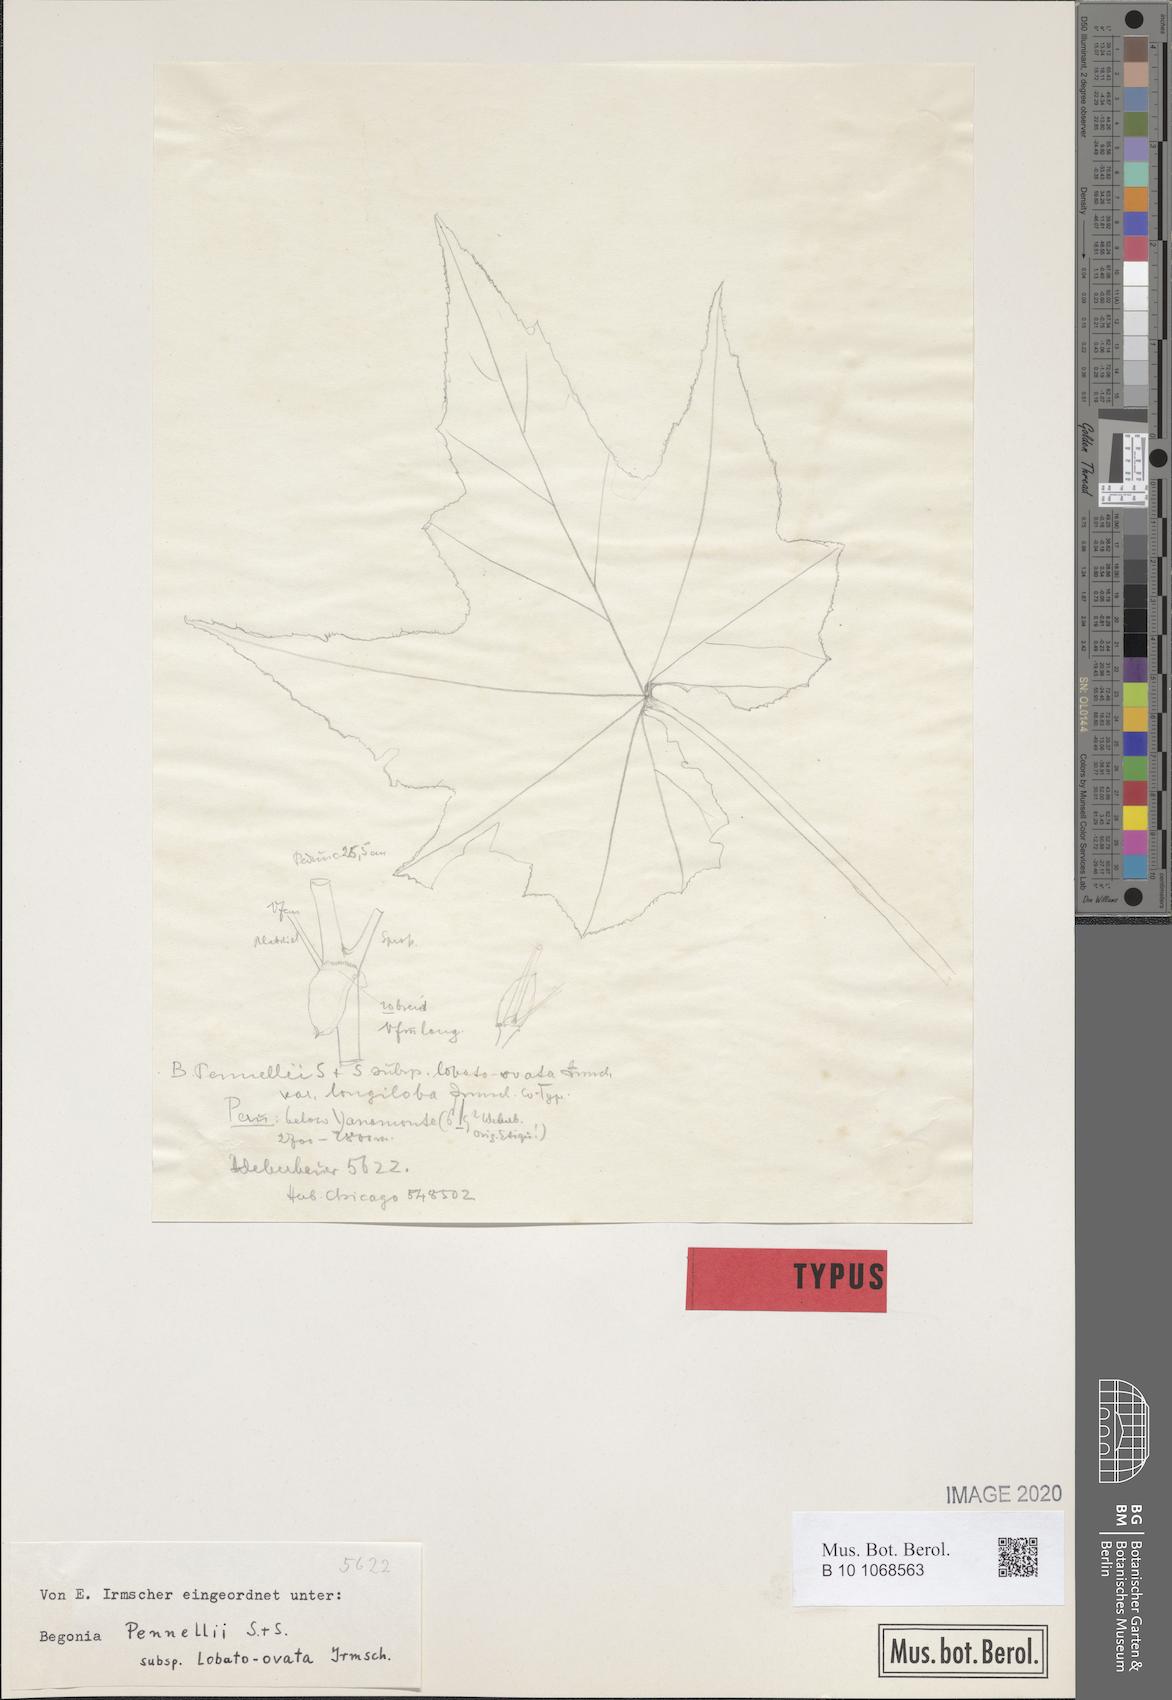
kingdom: Plantae
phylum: Tracheophyta
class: Magnoliopsida
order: Cucurbitales
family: Begoniaceae
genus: Begonia
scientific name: Begonia acerifolia
